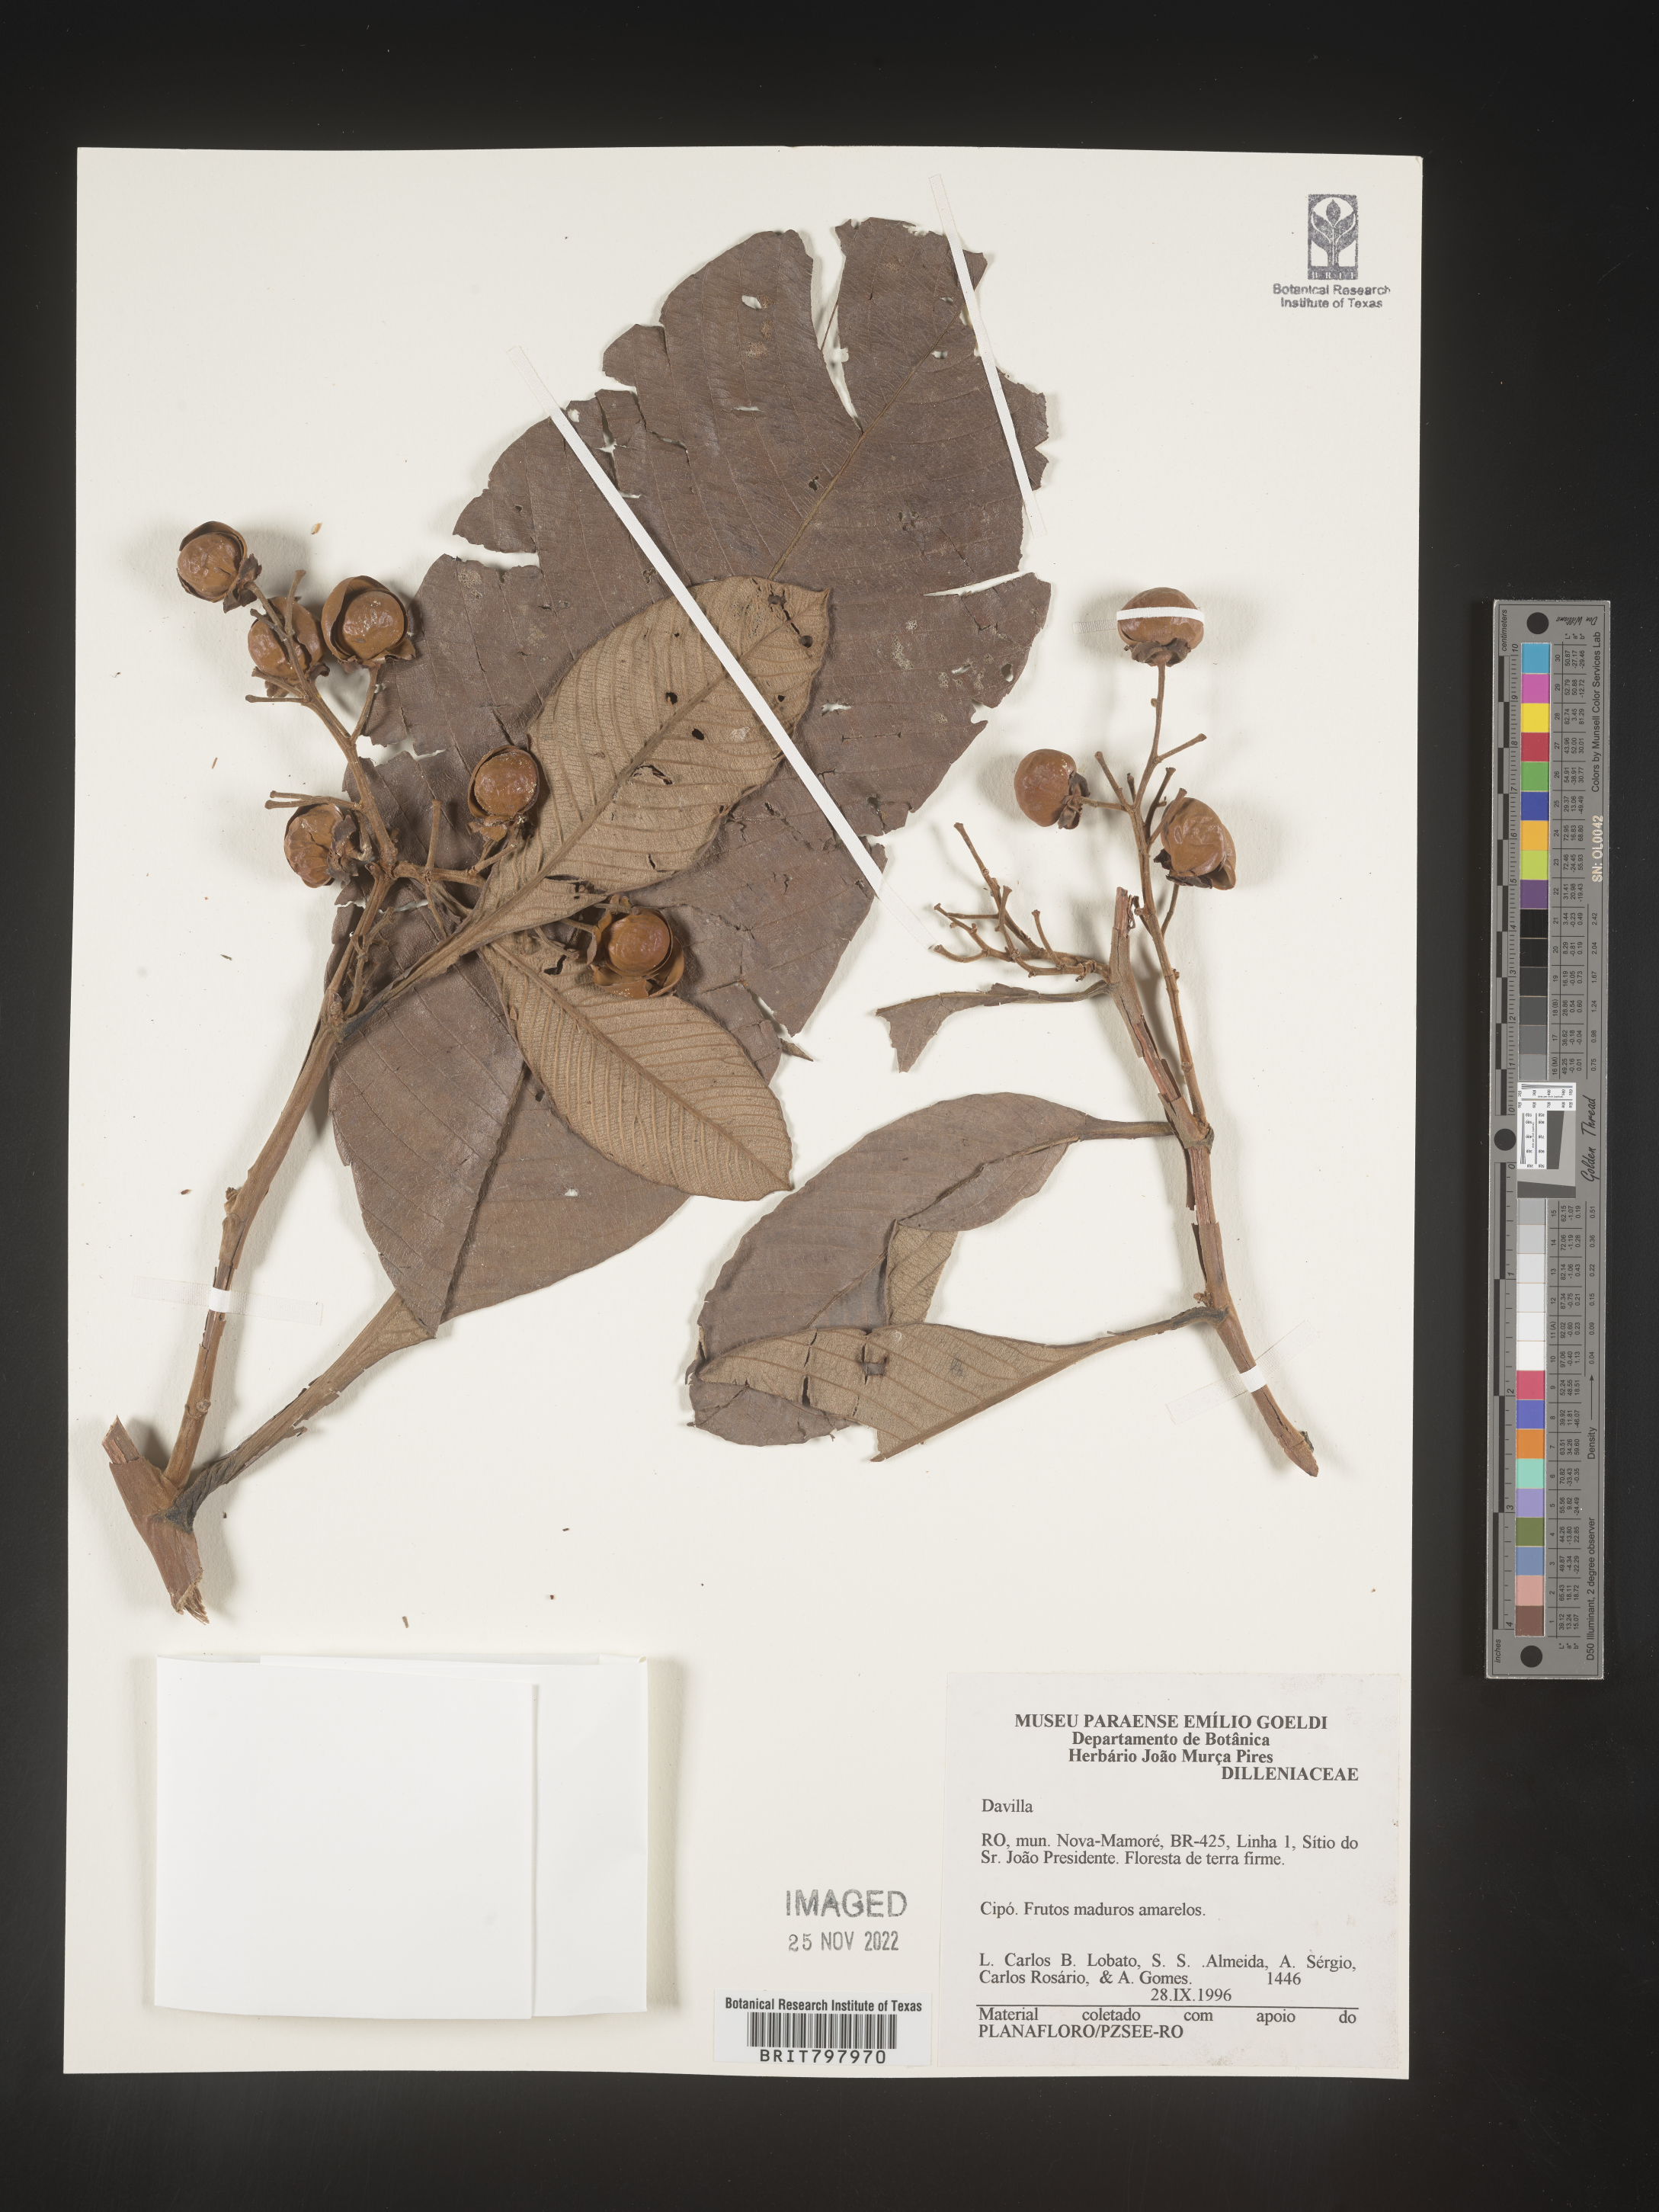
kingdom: Plantae
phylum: Tracheophyta
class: Polypodiopsida
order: Polypodiales
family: Davalliaceae
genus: Davallia
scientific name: Davallia
